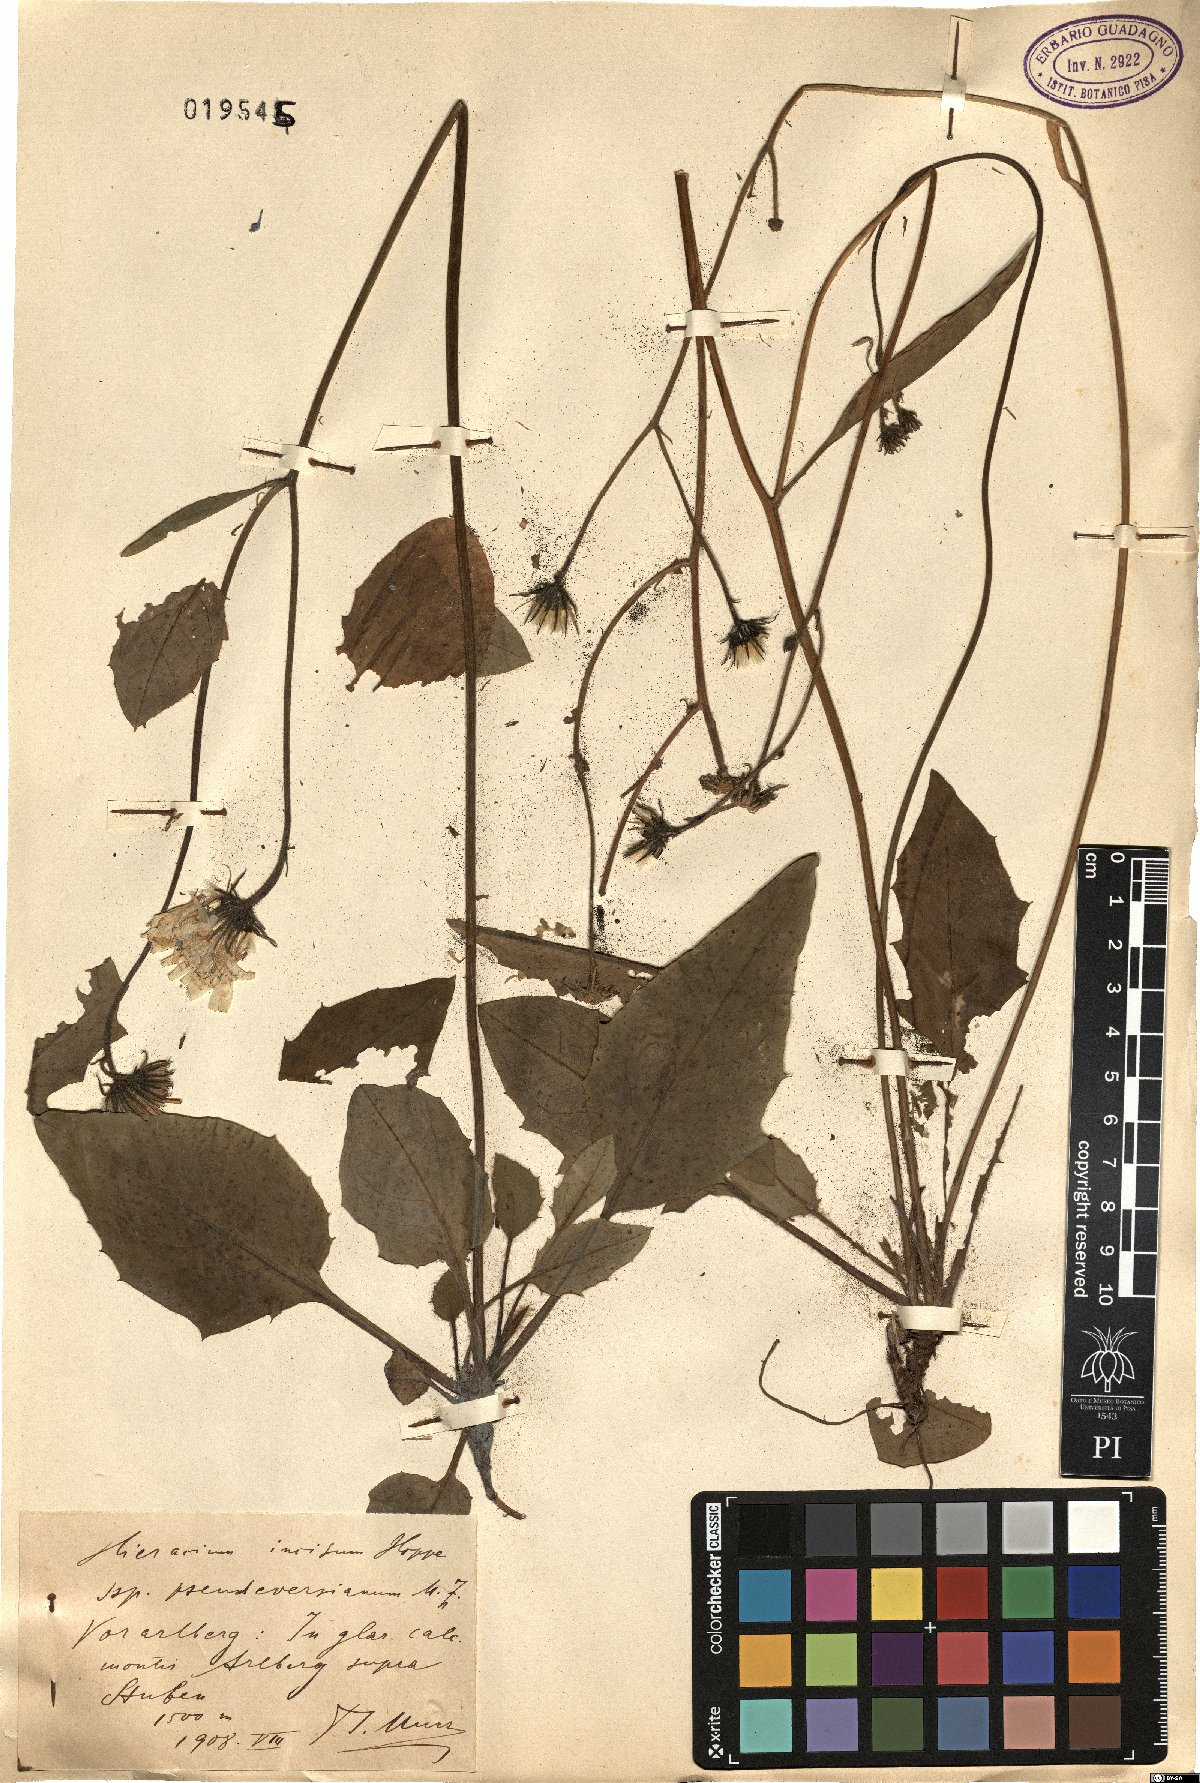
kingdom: Plantae
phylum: Tracheophyta
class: Magnoliopsida
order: Asterales
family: Asteraceae
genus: Hieracium
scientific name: Hieracium pallescens
